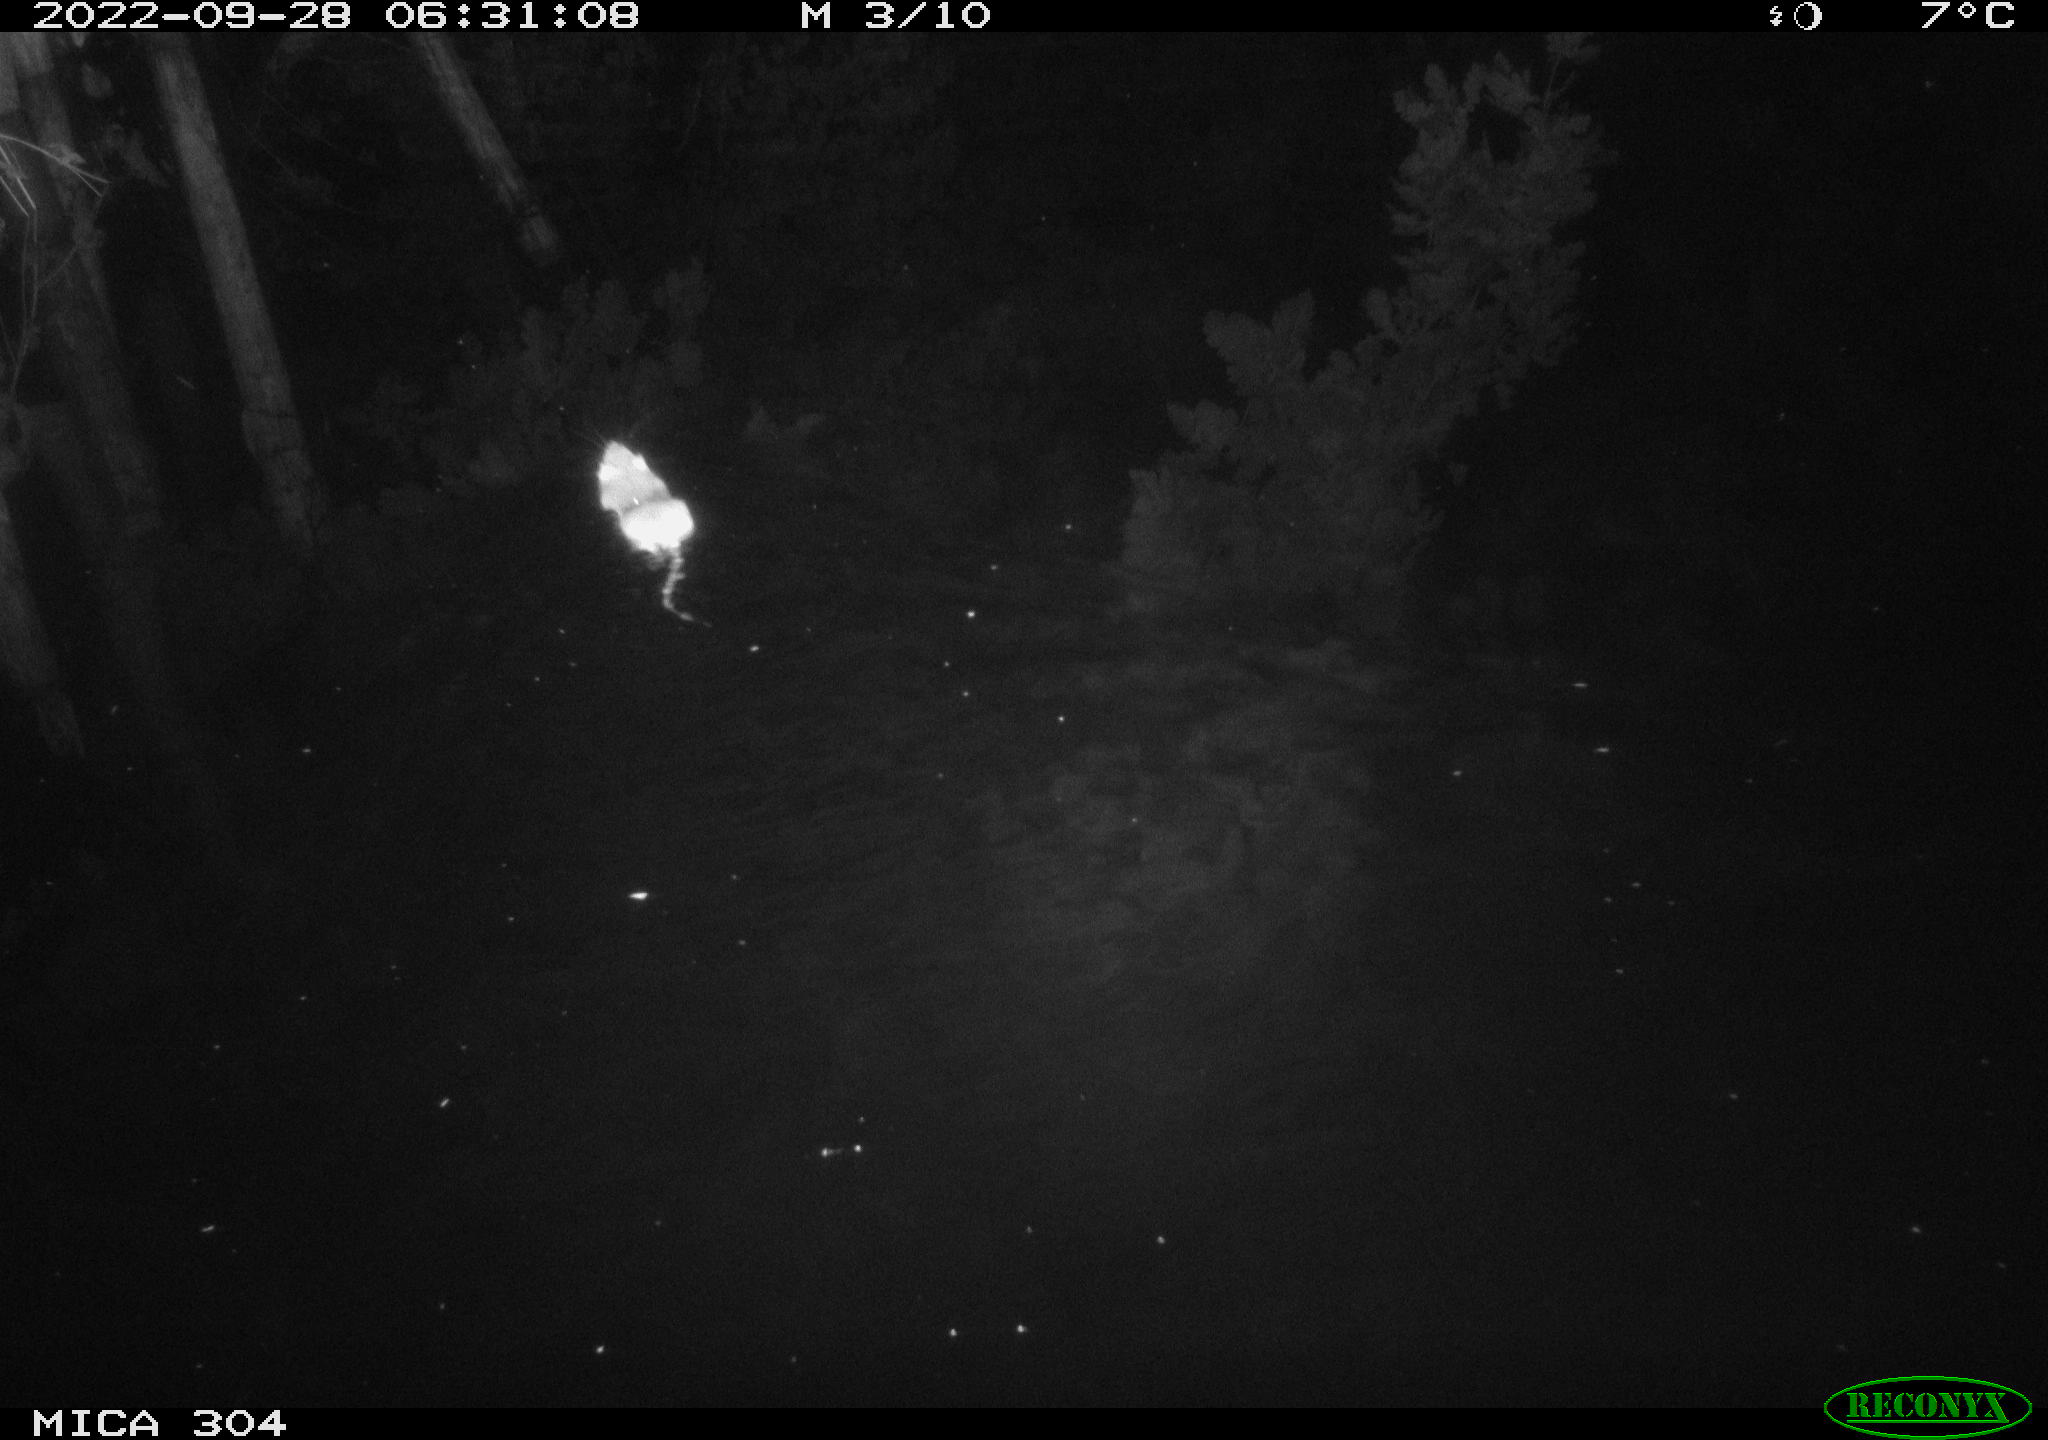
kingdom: Animalia
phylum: Chordata
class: Mammalia
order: Rodentia
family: Muridae
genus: Rattus
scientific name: Rattus norvegicus
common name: Brown rat
